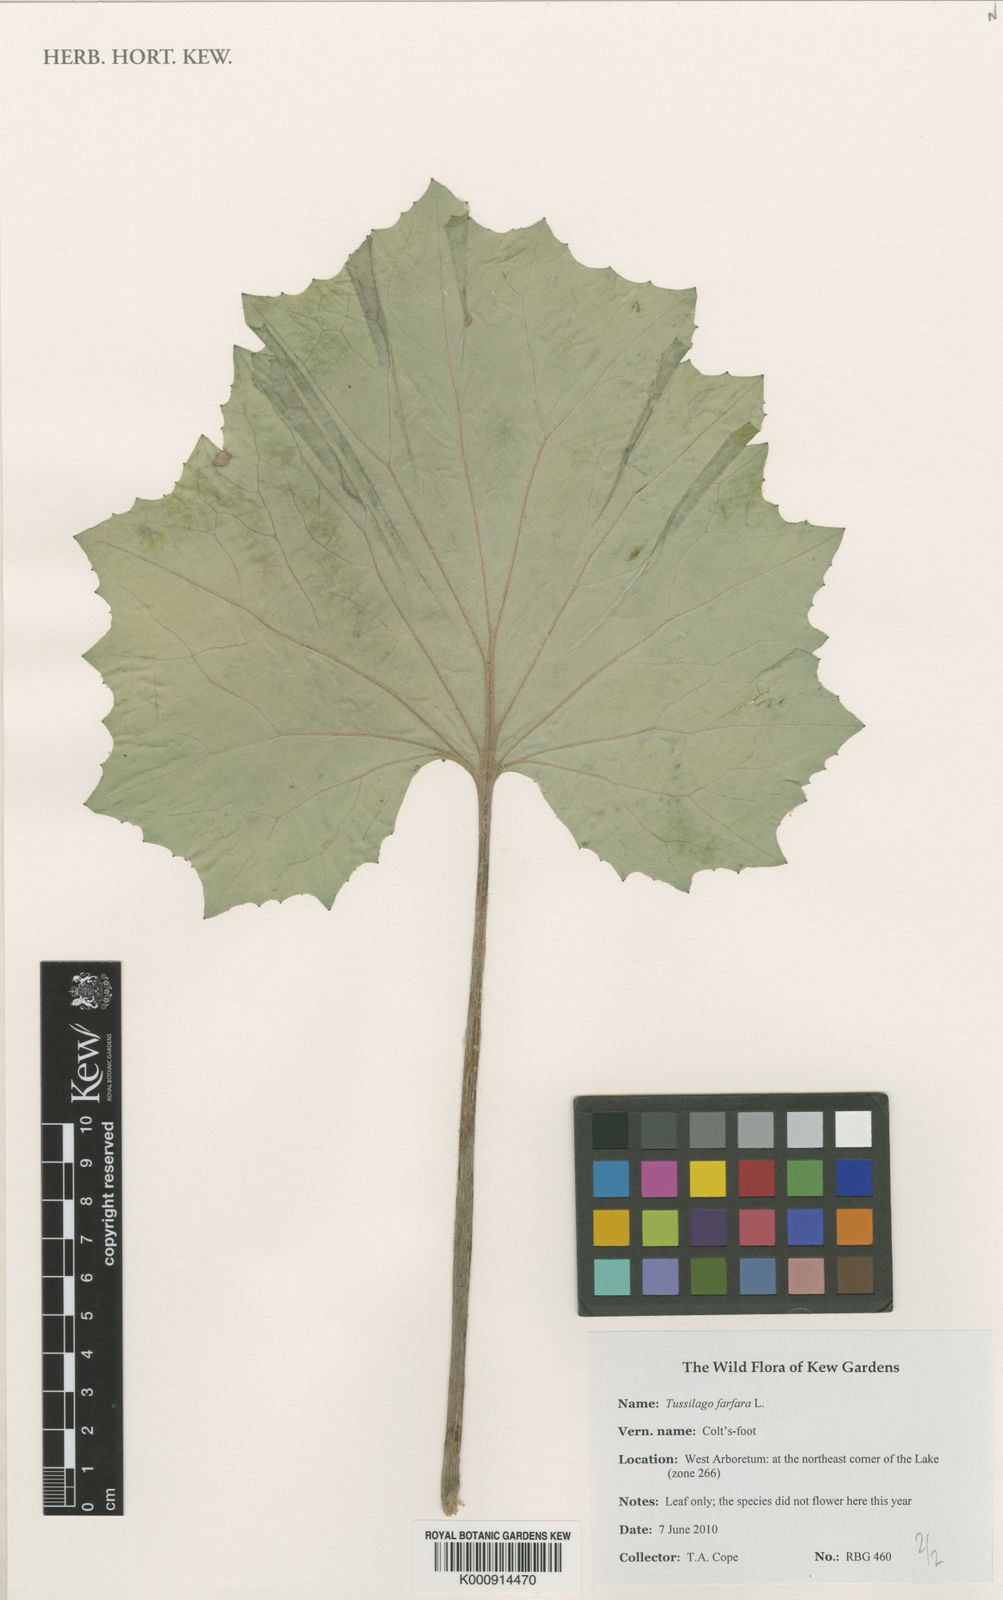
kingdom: Plantae
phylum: Tracheophyta
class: Magnoliopsida
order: Asterales
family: Asteraceae
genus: Tussilago
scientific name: Tussilago farfara
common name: Coltsfoot
